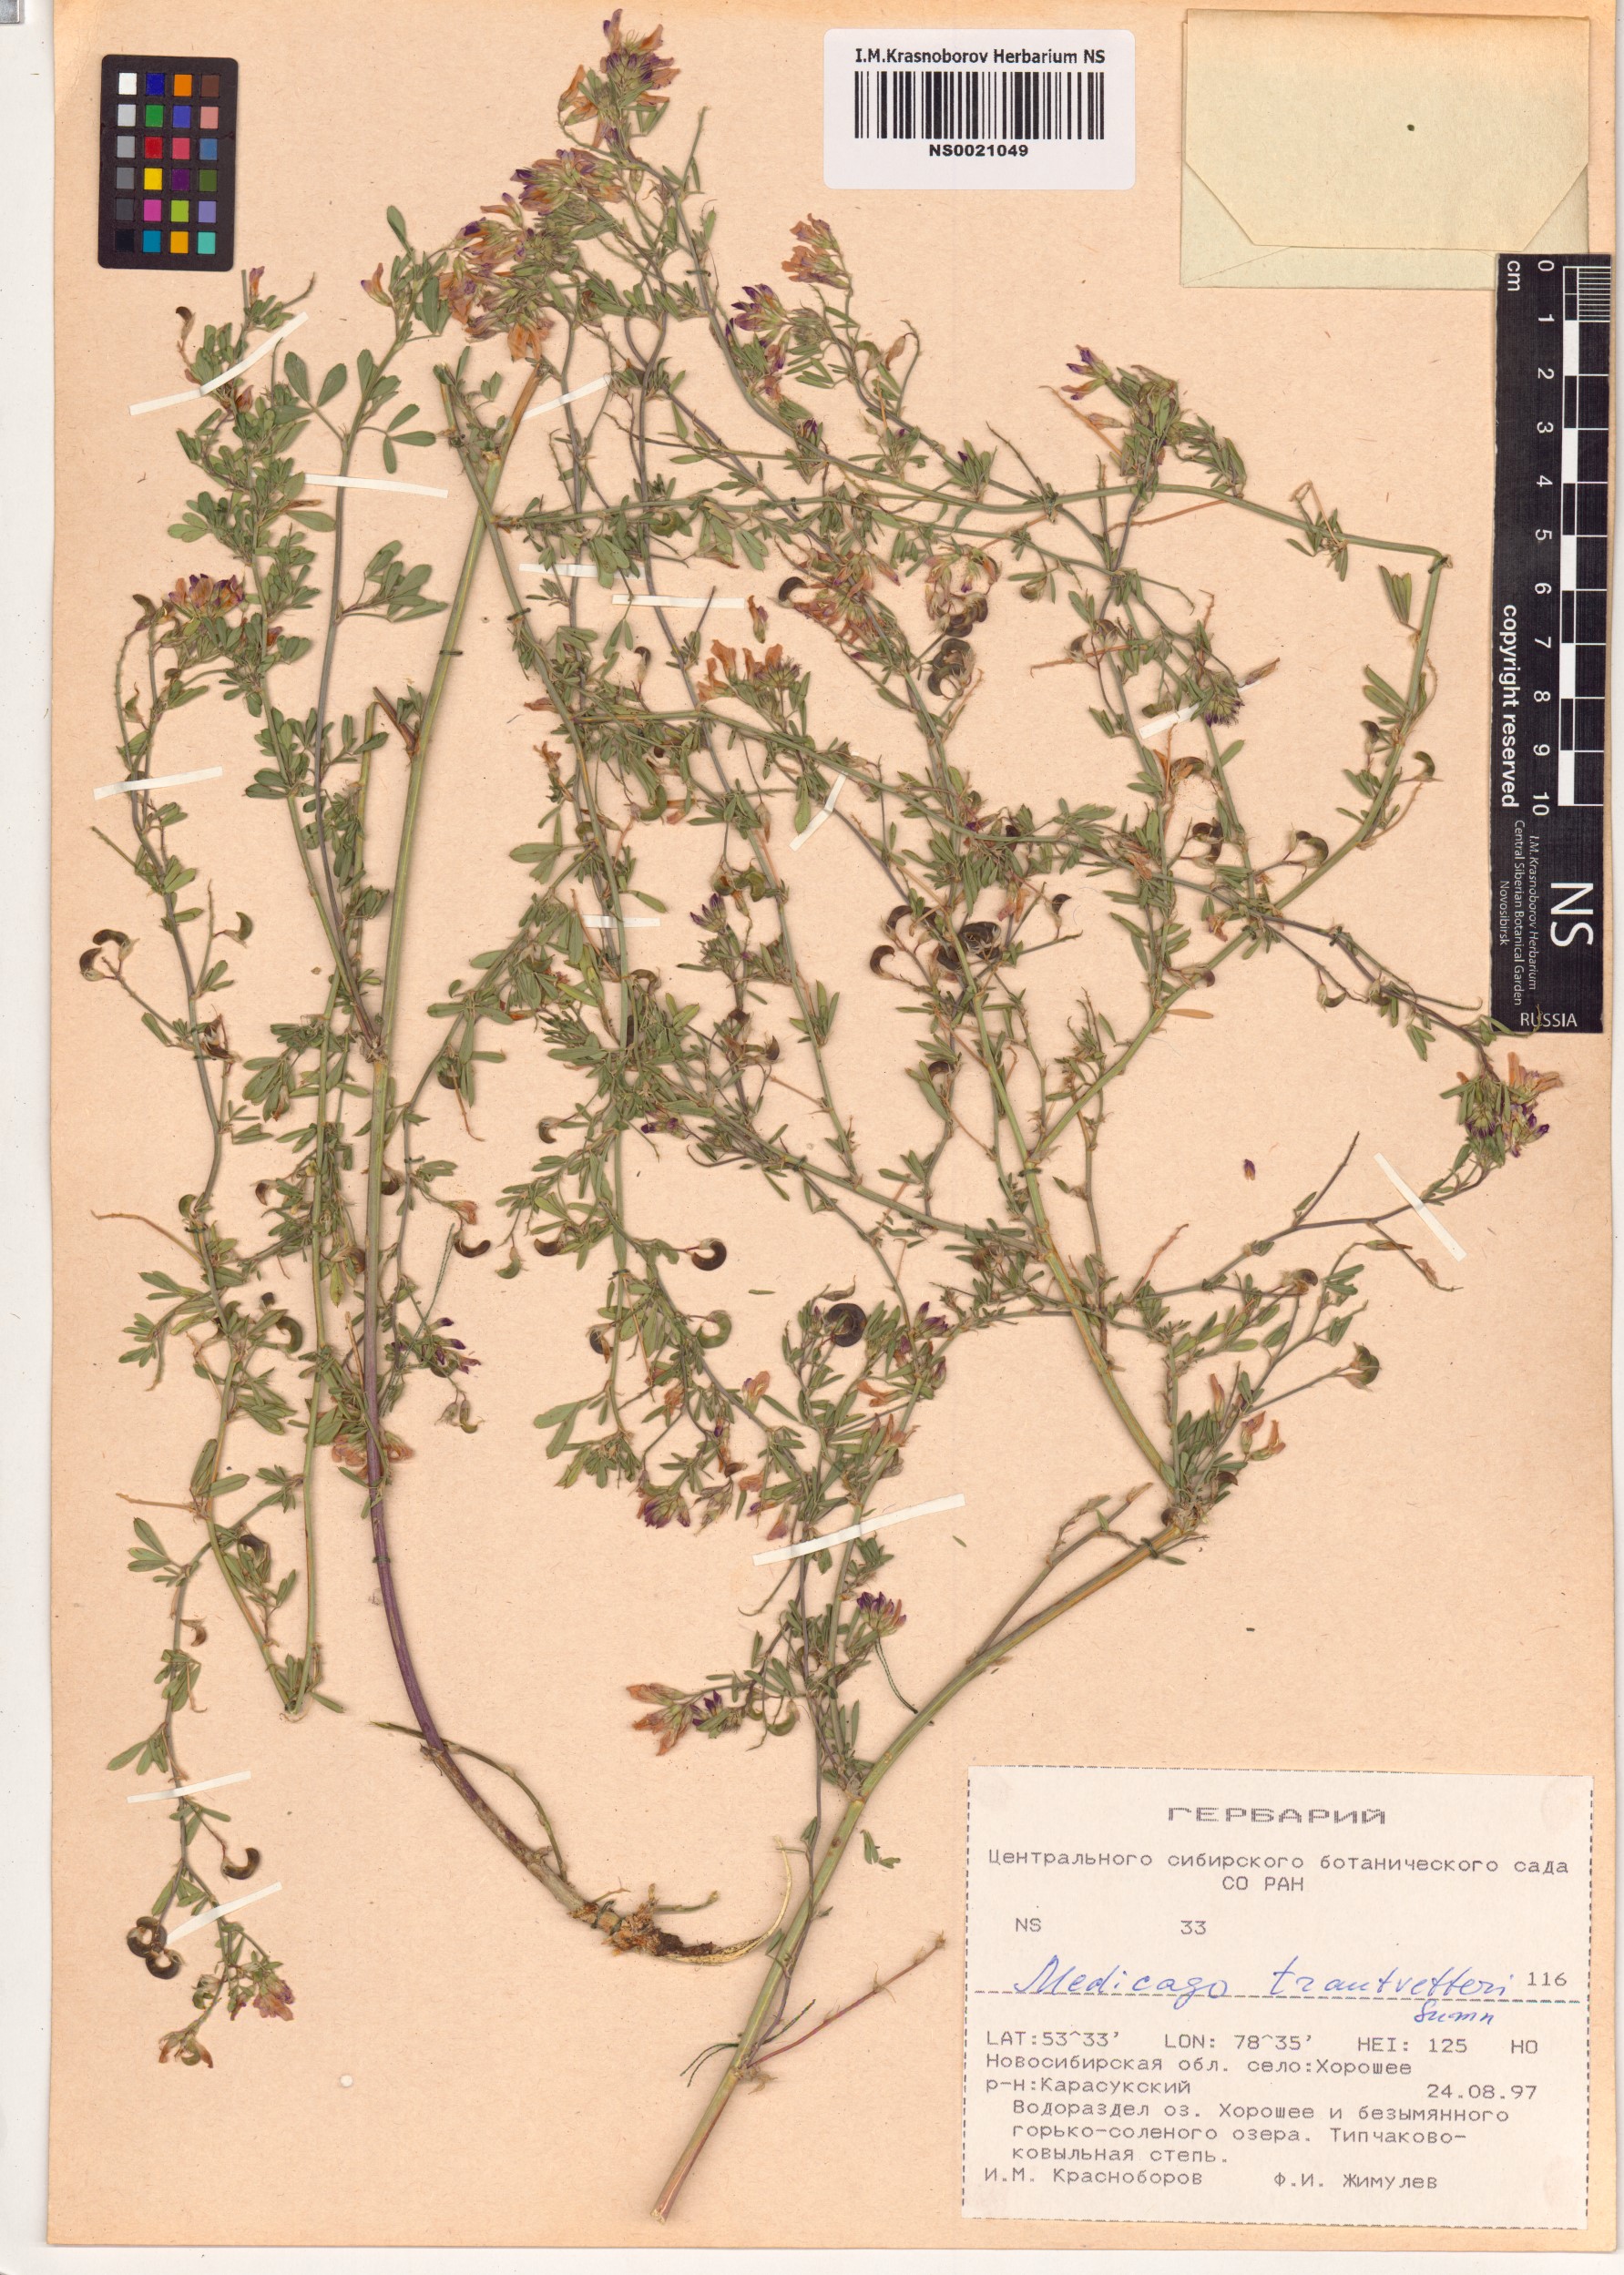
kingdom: Plantae
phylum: Tracheophyta
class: Magnoliopsida
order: Fabales
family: Fabaceae
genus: Medicago
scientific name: Medicago varia
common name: Sand lucerne
